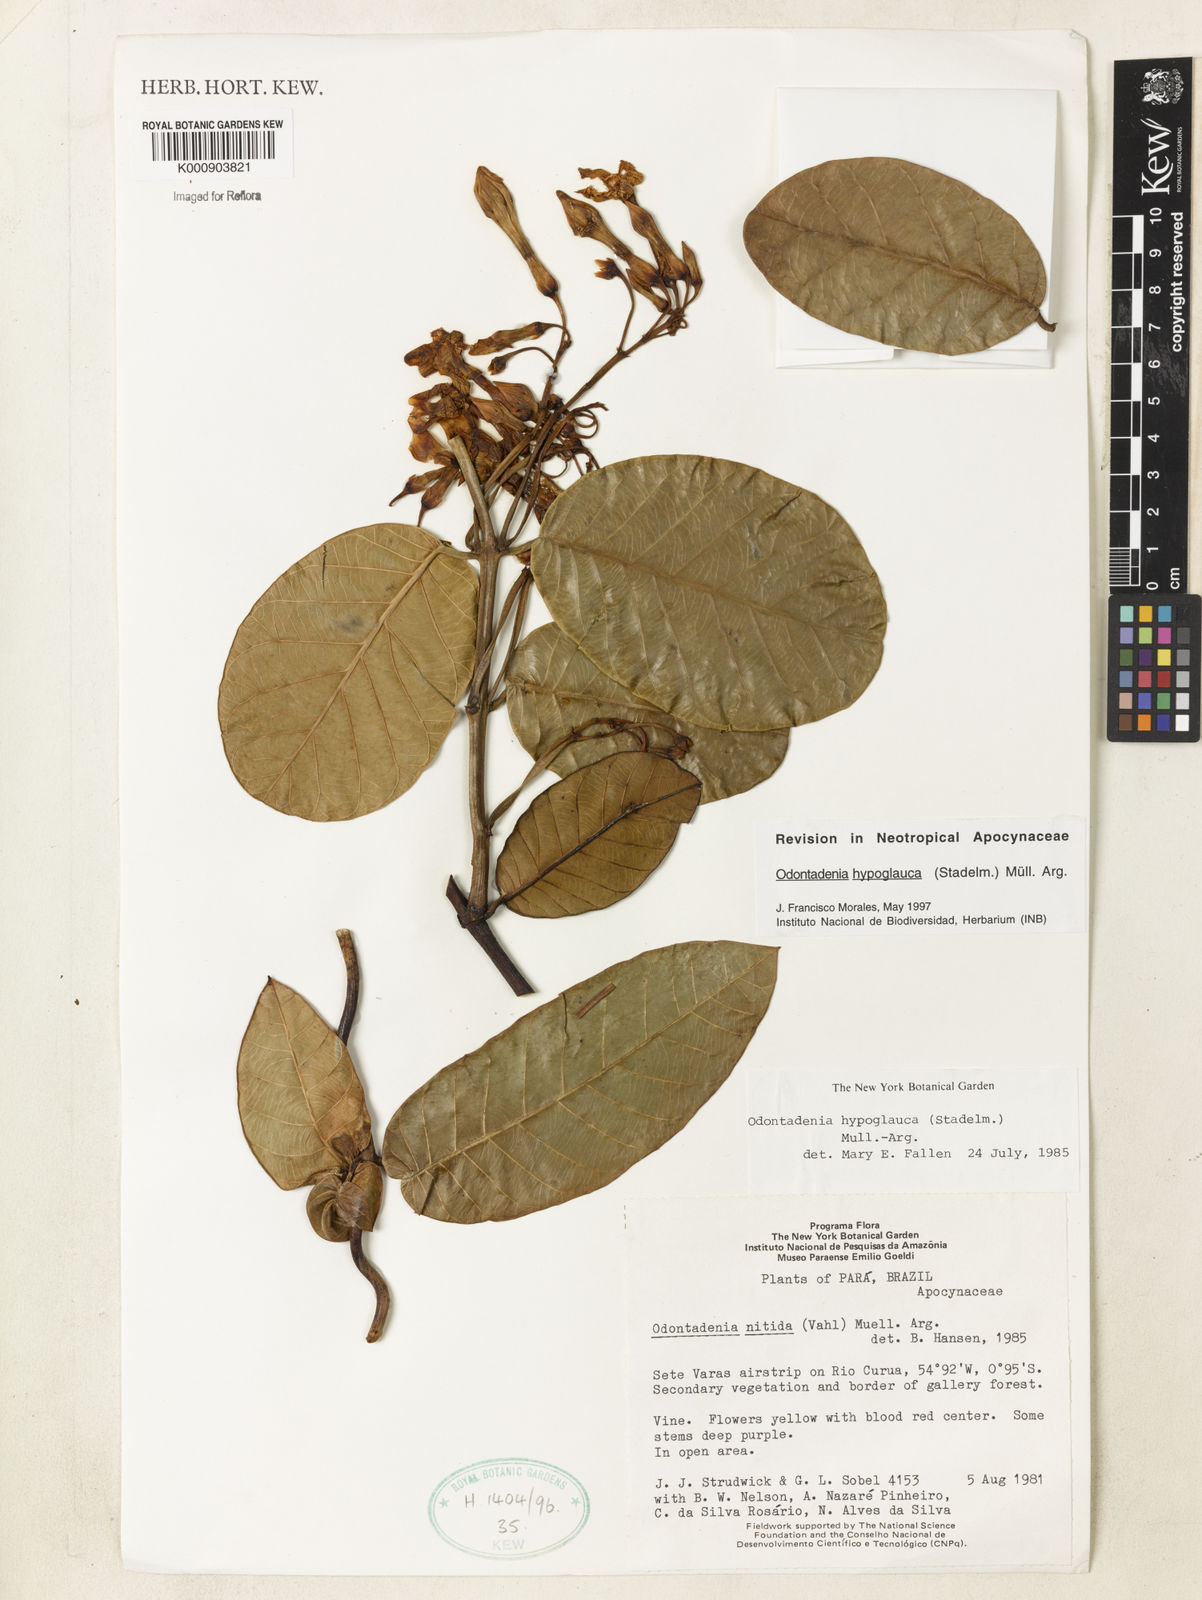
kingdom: Plantae
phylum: Tracheophyta
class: Magnoliopsida
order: Gentianales
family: Apocynaceae
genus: Odontadenia
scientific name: Odontadenia
